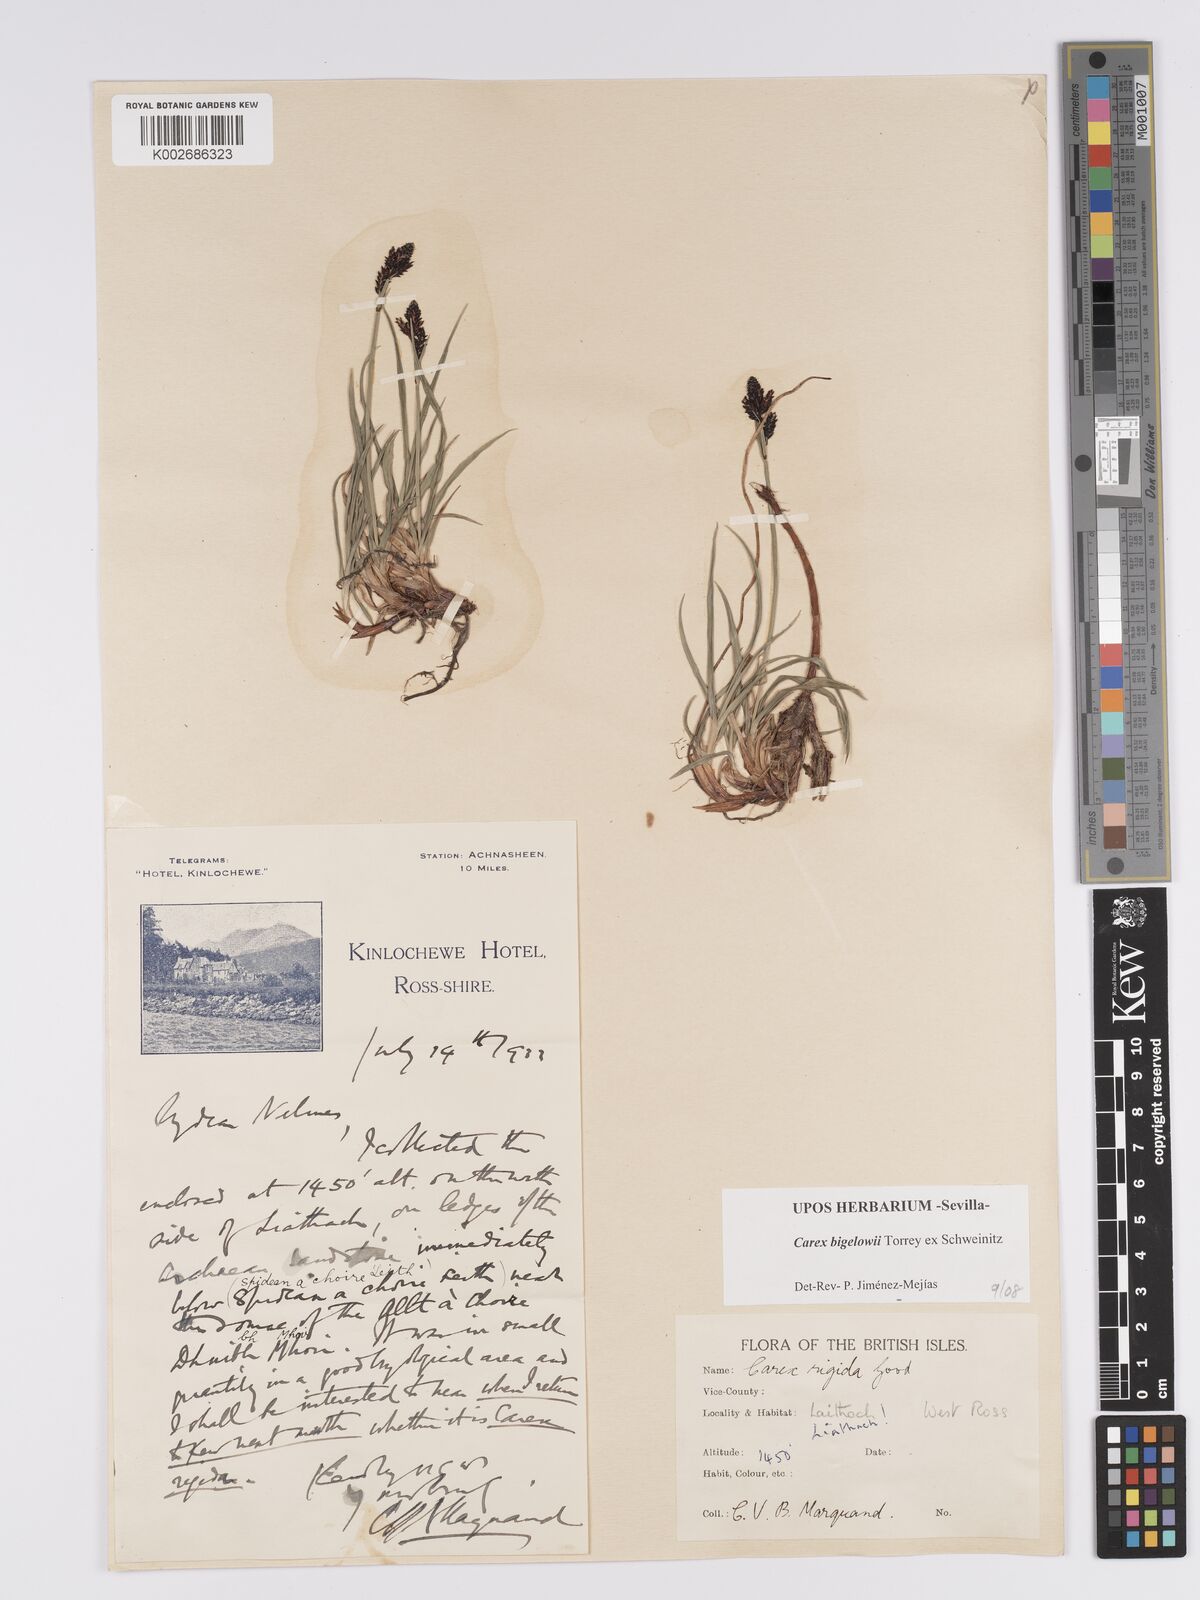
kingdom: Plantae
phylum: Tracheophyta
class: Liliopsida
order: Poales
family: Cyperaceae
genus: Carex
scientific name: Carex bigelowii
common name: Stiff sedge
